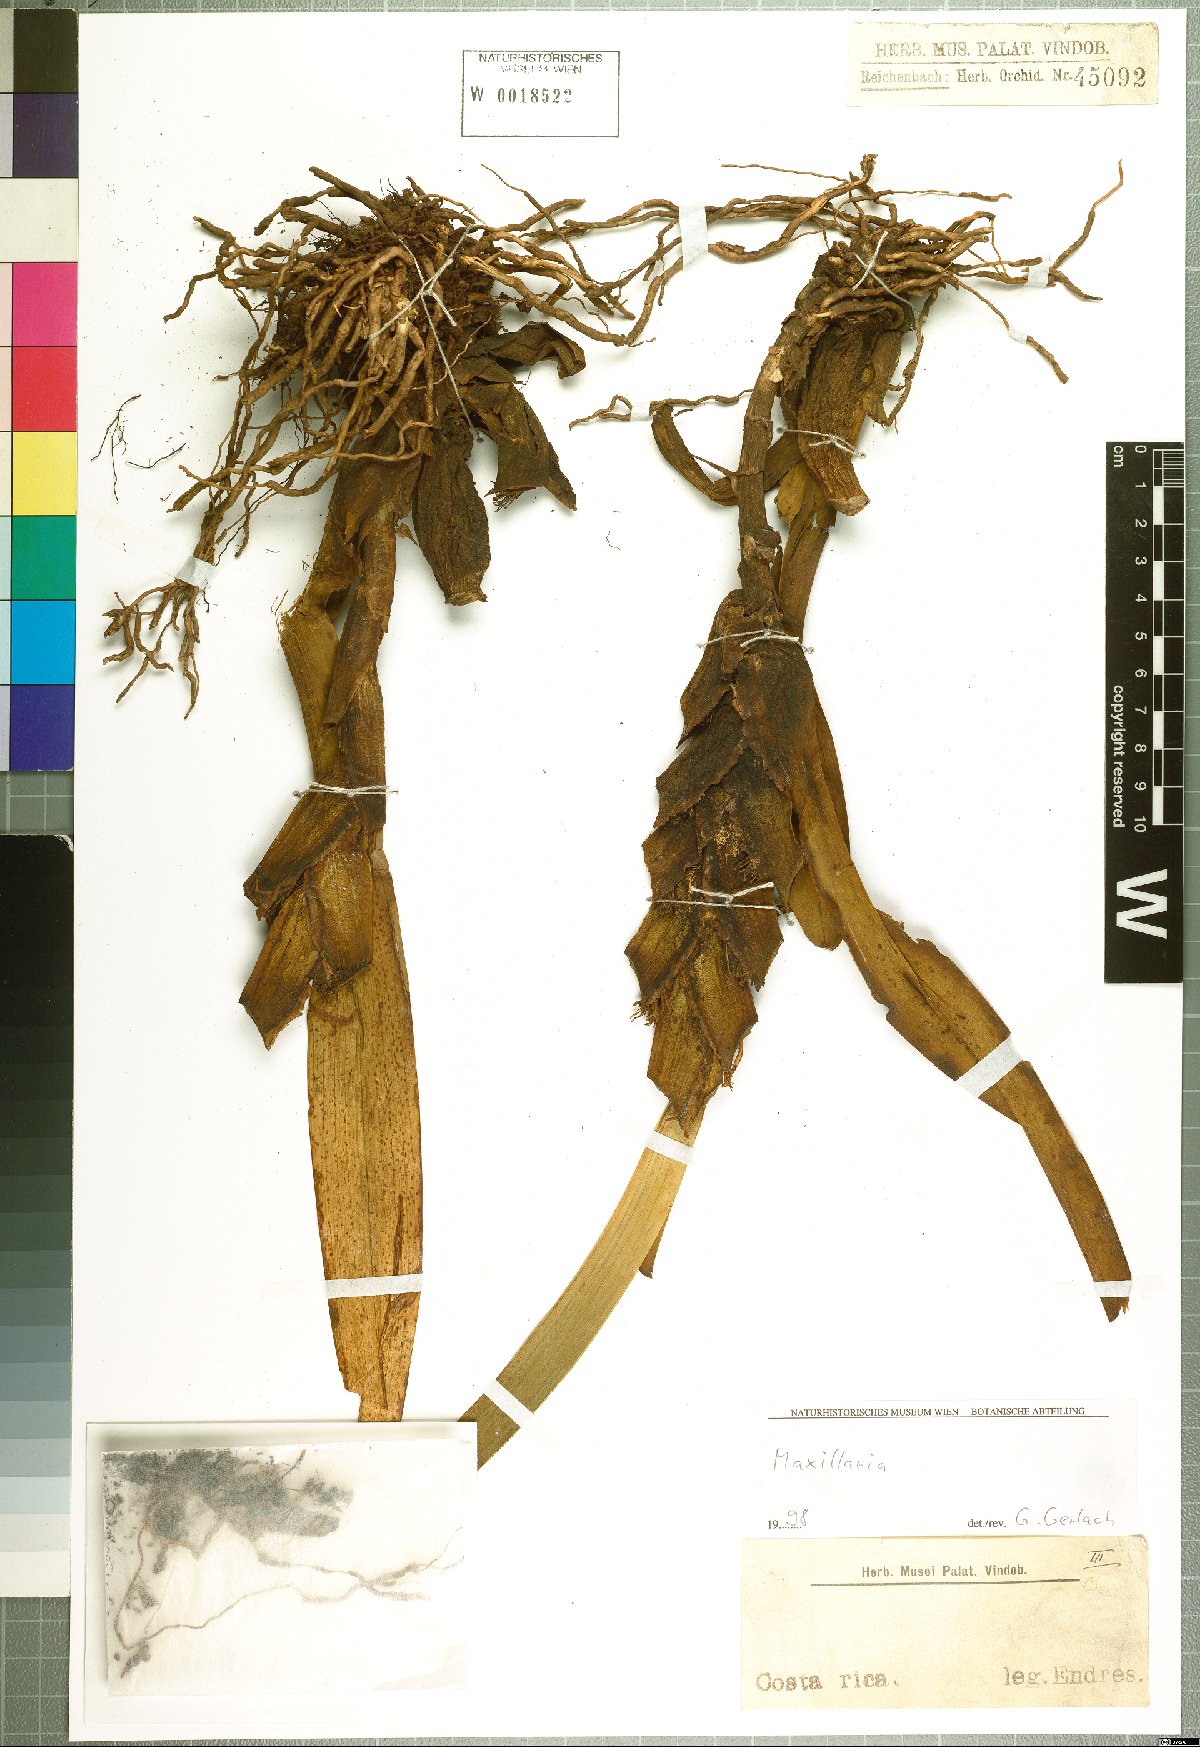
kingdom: Plantae
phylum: Tracheophyta
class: Liliopsida
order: Asparagales
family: Orchidaceae
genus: Maxillaria
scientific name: Maxillaria
